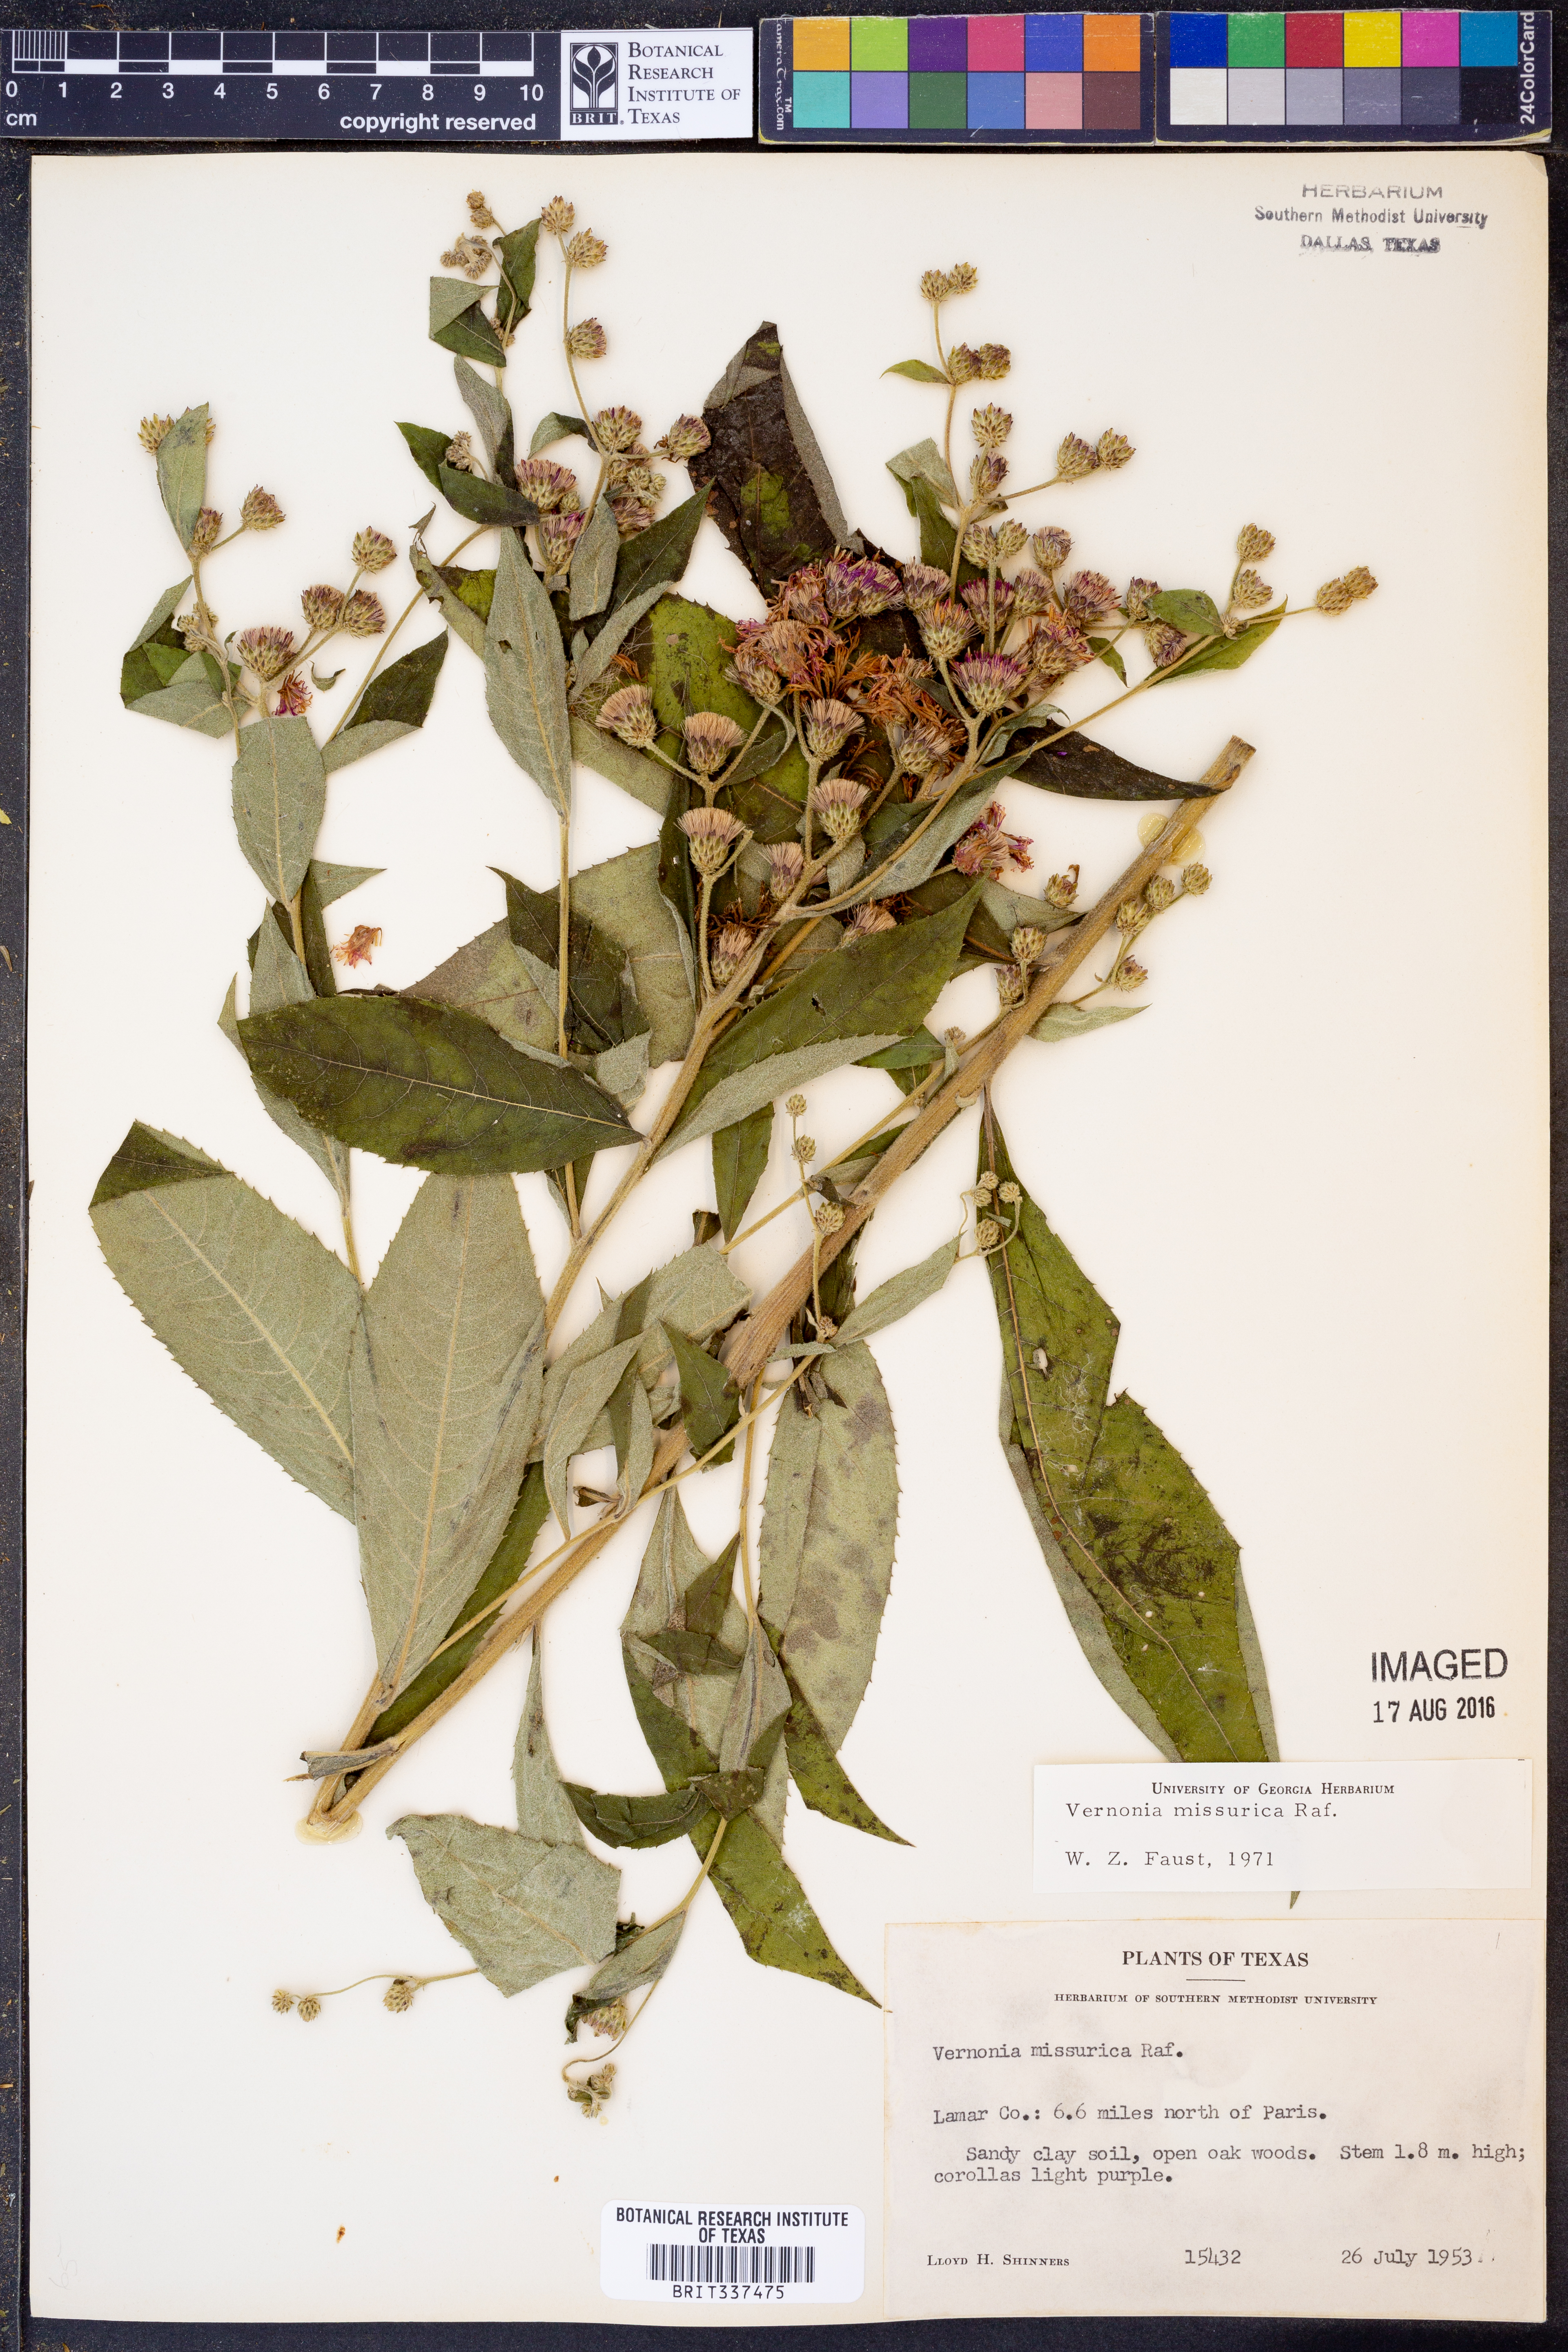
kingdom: Plantae
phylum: Tracheophyta
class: Magnoliopsida
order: Asterales
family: Asteraceae
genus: Vernonia
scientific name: Vernonia missurica
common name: Missouri ironweed
